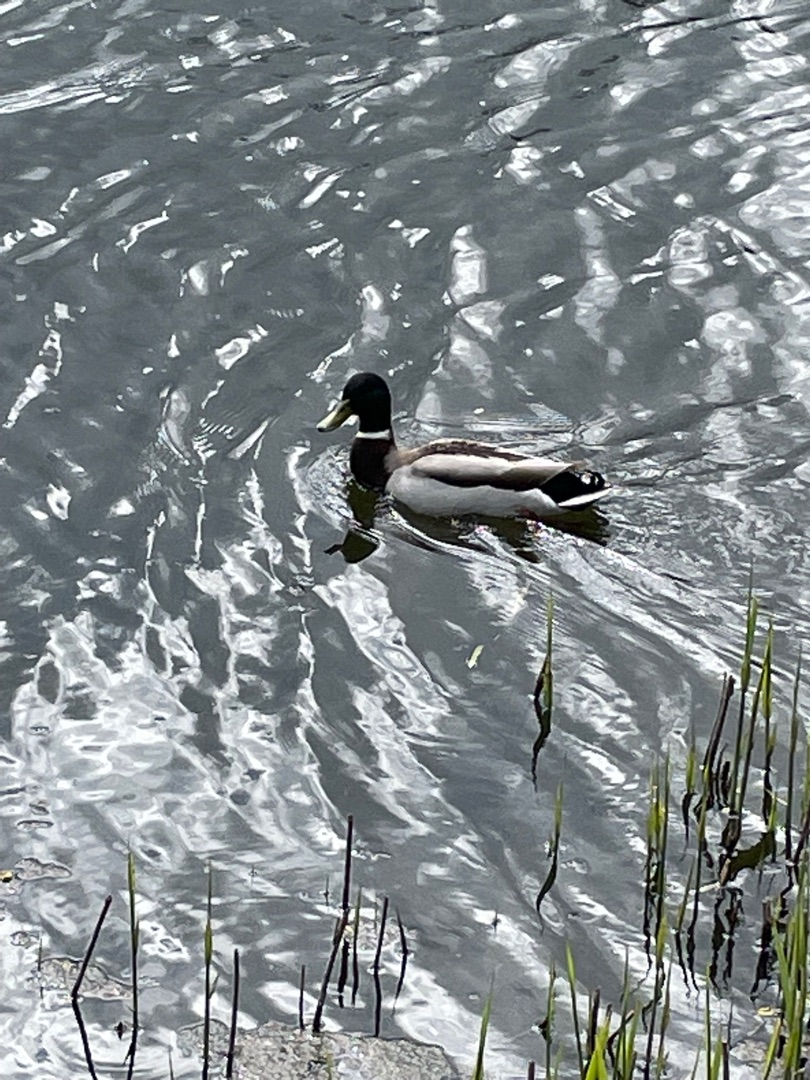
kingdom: Animalia
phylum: Chordata
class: Aves
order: Anseriformes
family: Anatidae
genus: Anas
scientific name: Anas platyrhynchos
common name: Gråand
